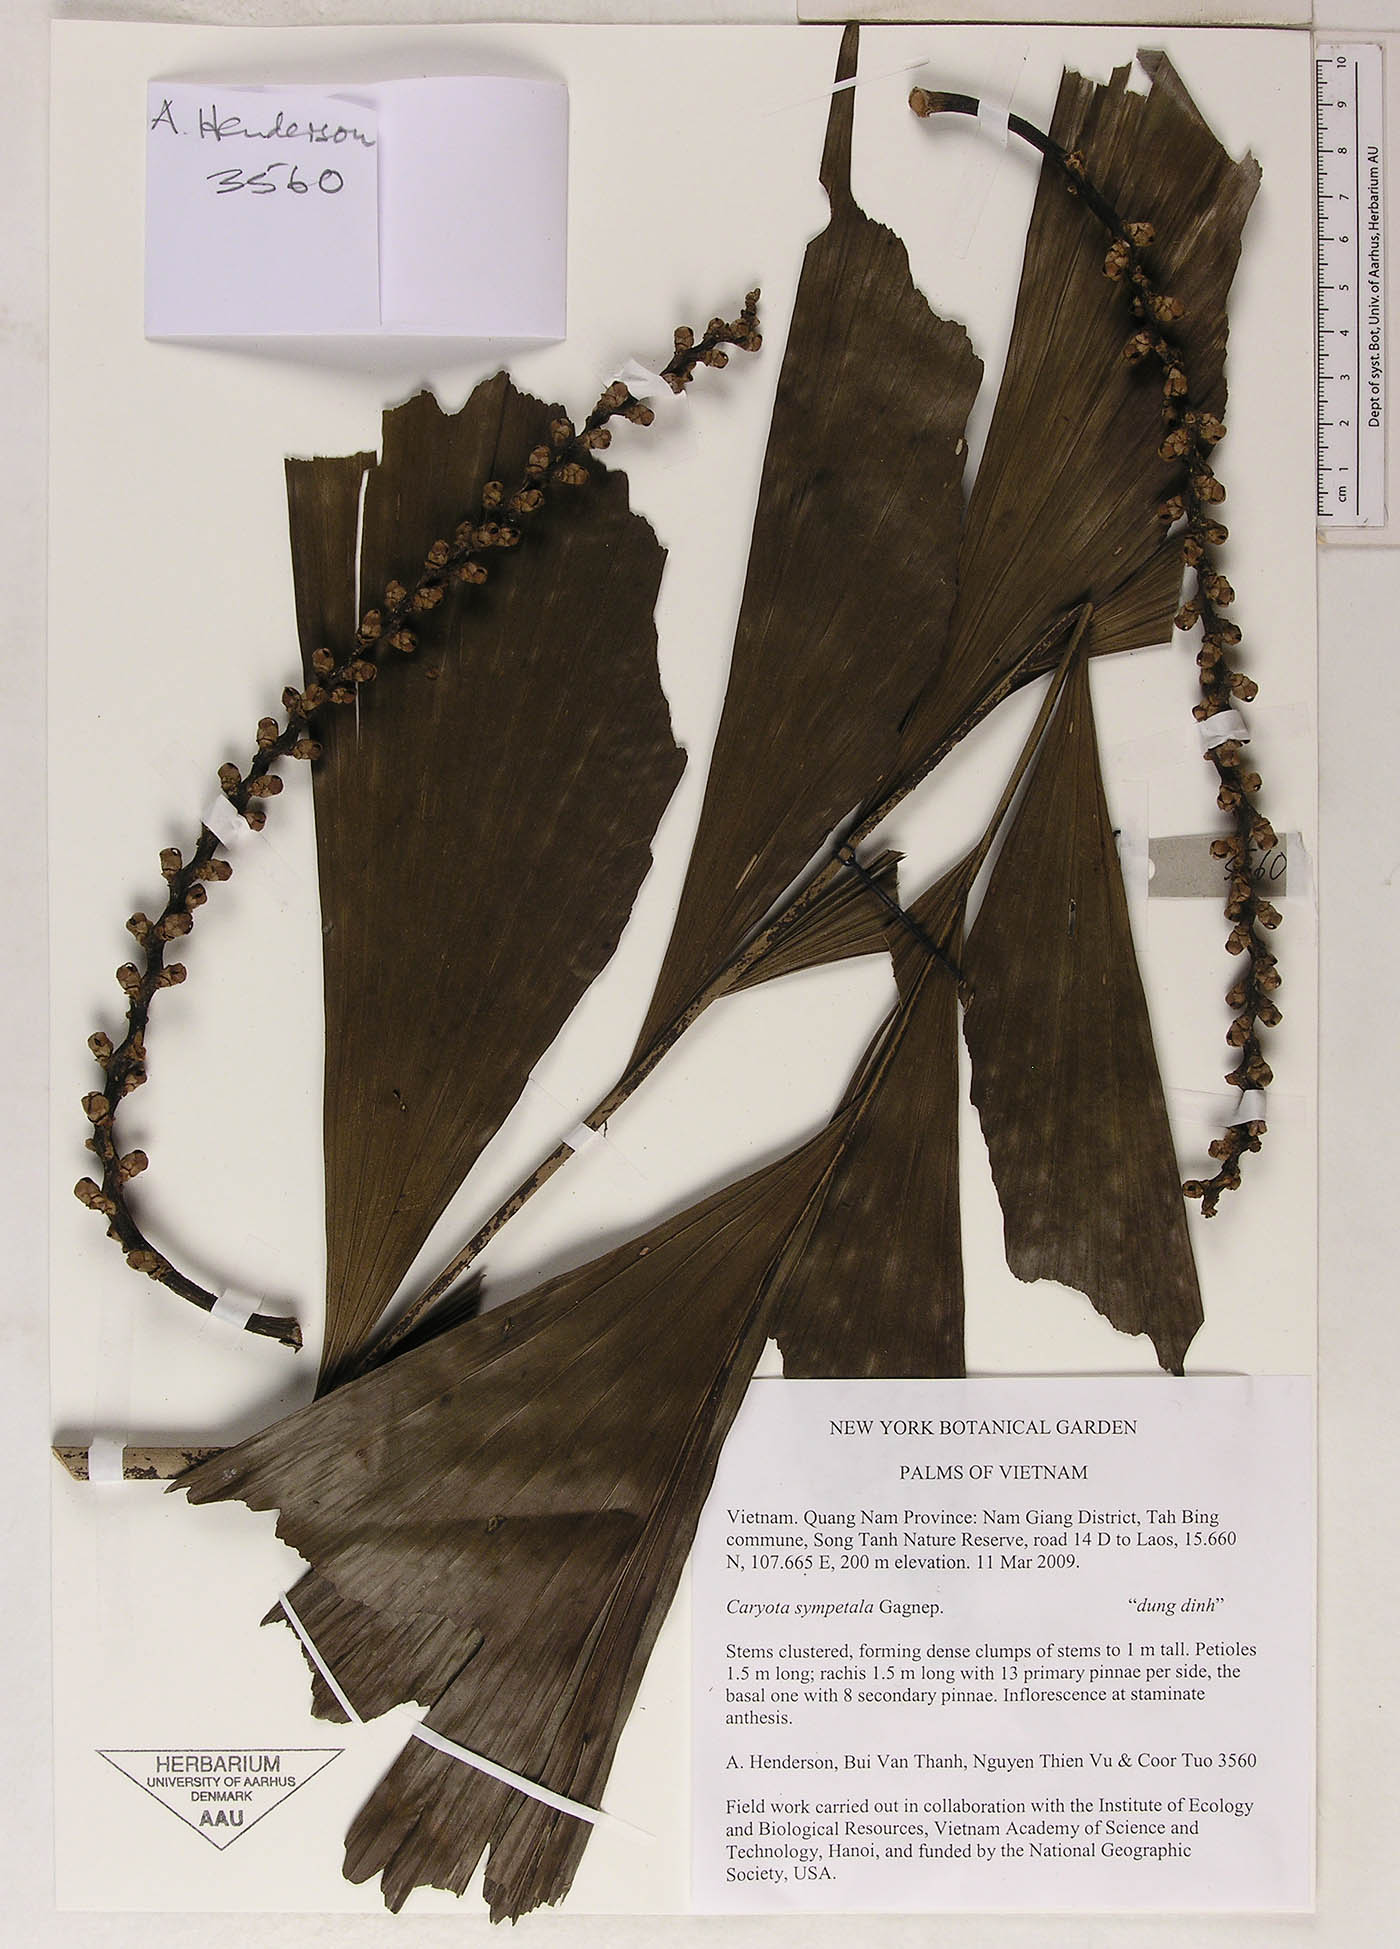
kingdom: Plantae
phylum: Tracheophyta
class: Liliopsida
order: Arecales
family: Arecaceae
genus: Caryota
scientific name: Caryota sympetala
